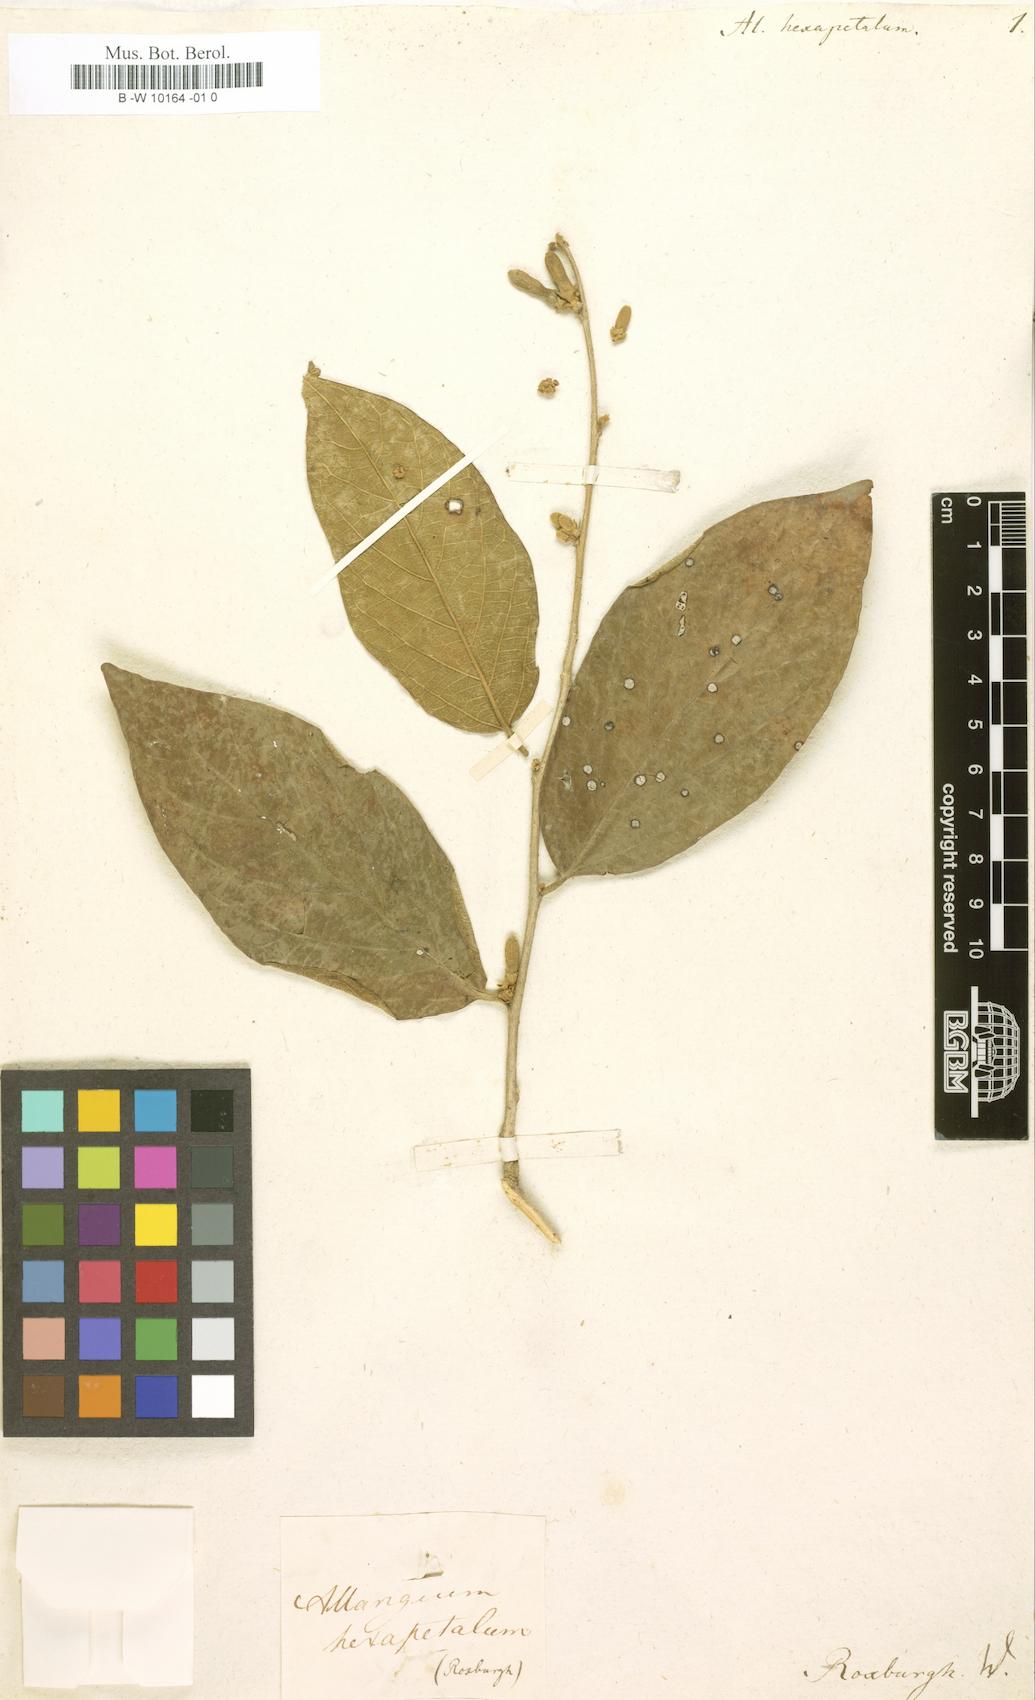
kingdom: Plantae
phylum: Tracheophyta
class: Magnoliopsida
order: Cornales
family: Cornaceae
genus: Alangium
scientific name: Alangium hexapetalum
